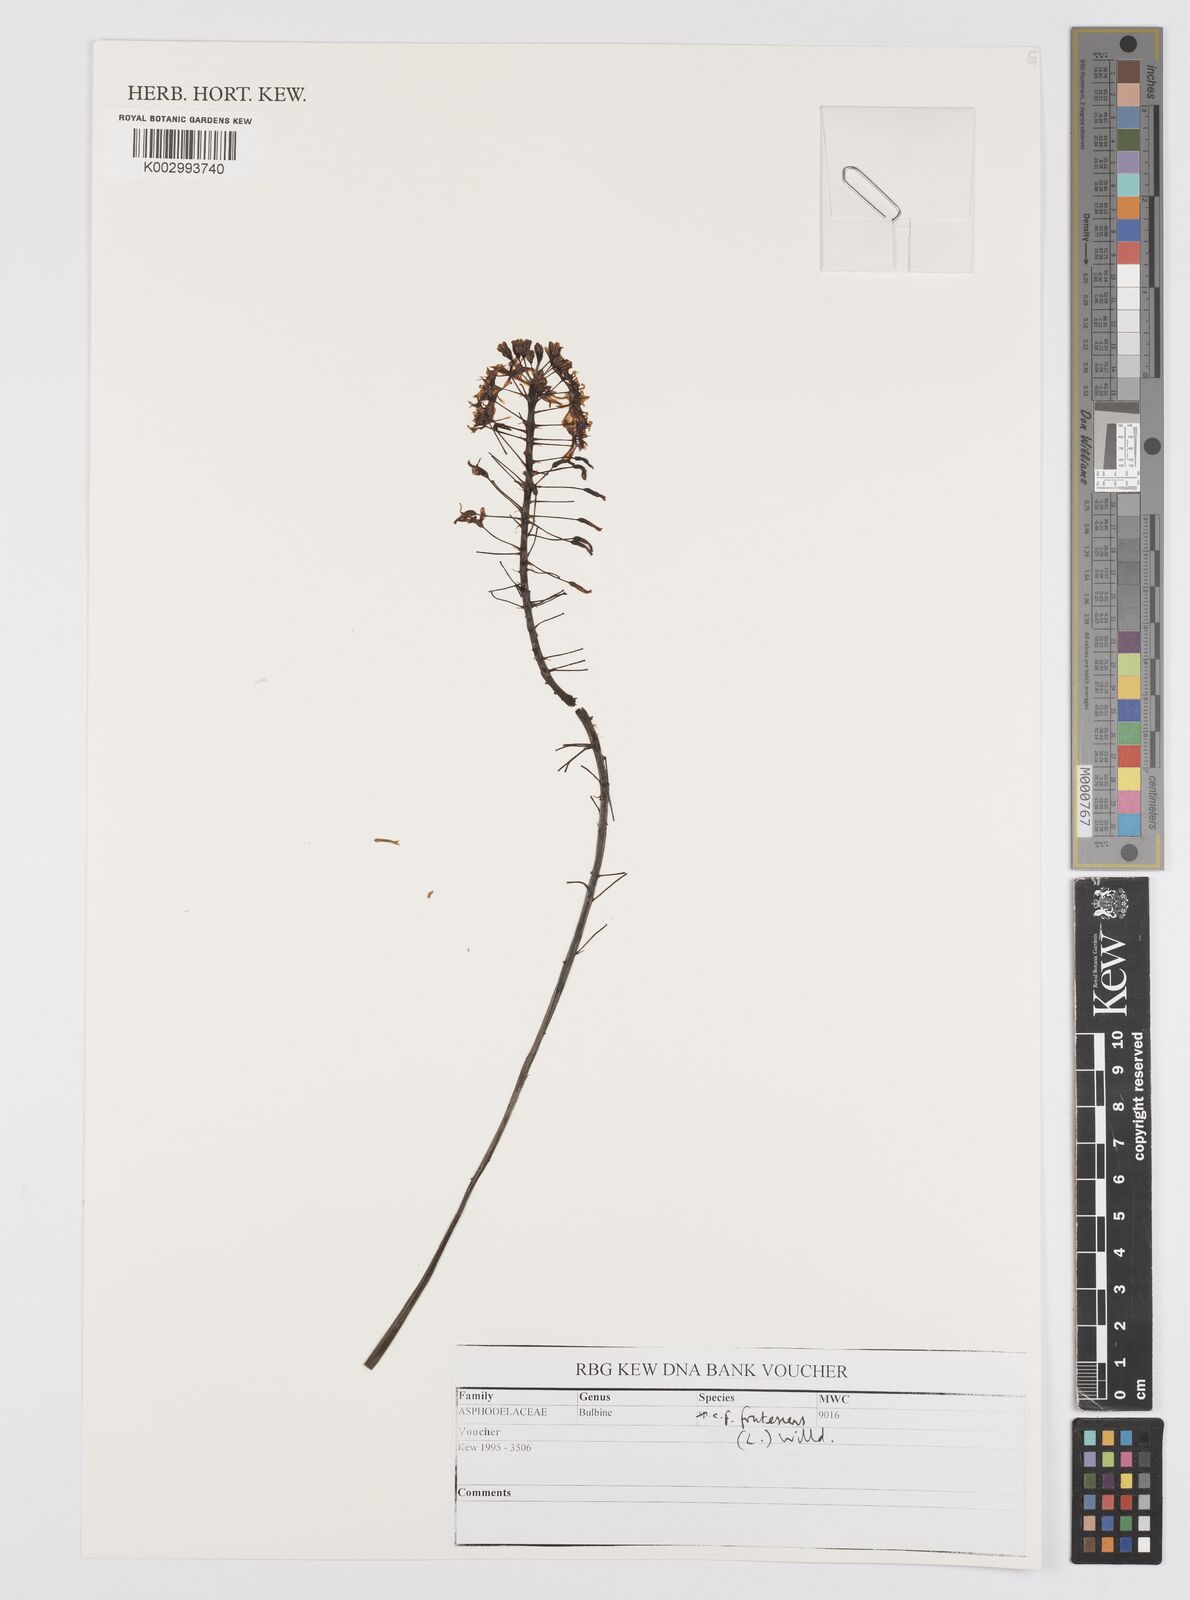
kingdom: Plantae
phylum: Tracheophyta
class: Liliopsida
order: Asparagales
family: Asphodelaceae
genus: Bulbine
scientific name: Bulbine frutescens
